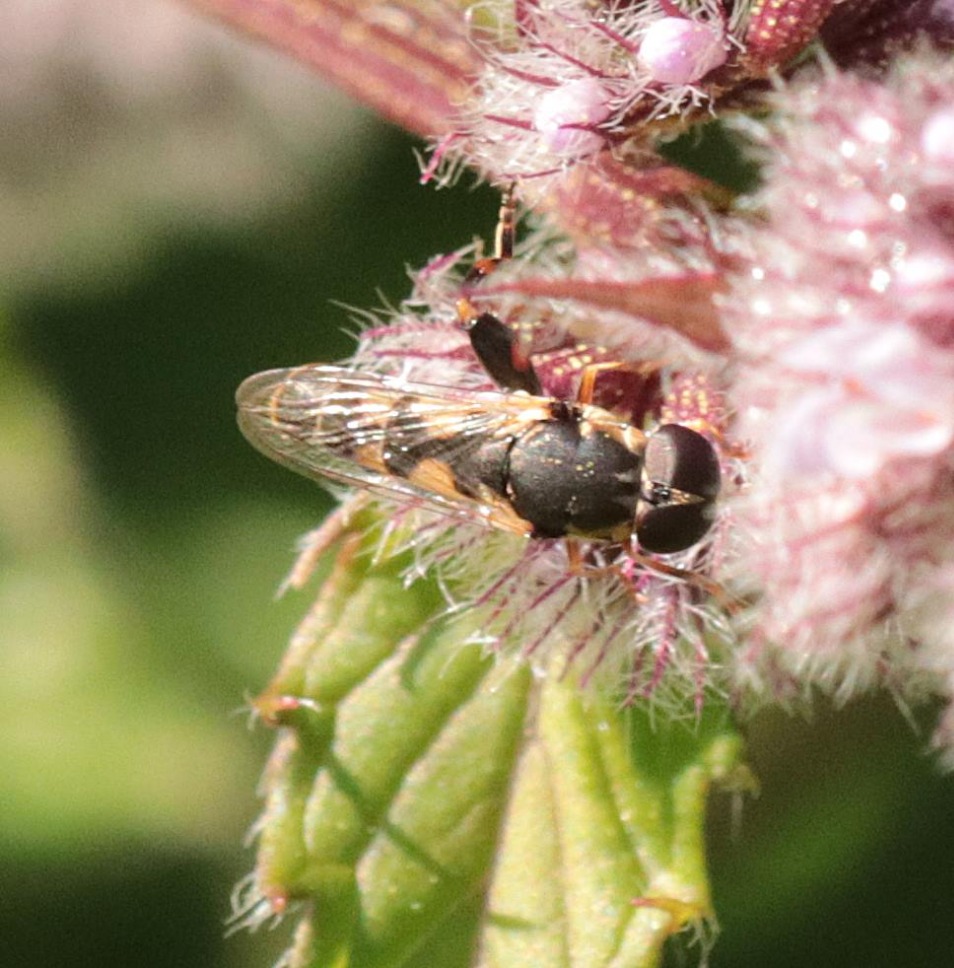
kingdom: Animalia
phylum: Arthropoda
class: Insecta
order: Diptera
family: Syrphidae
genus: Syritta
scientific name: Syritta pipiens
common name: Kompost-svirreflue
